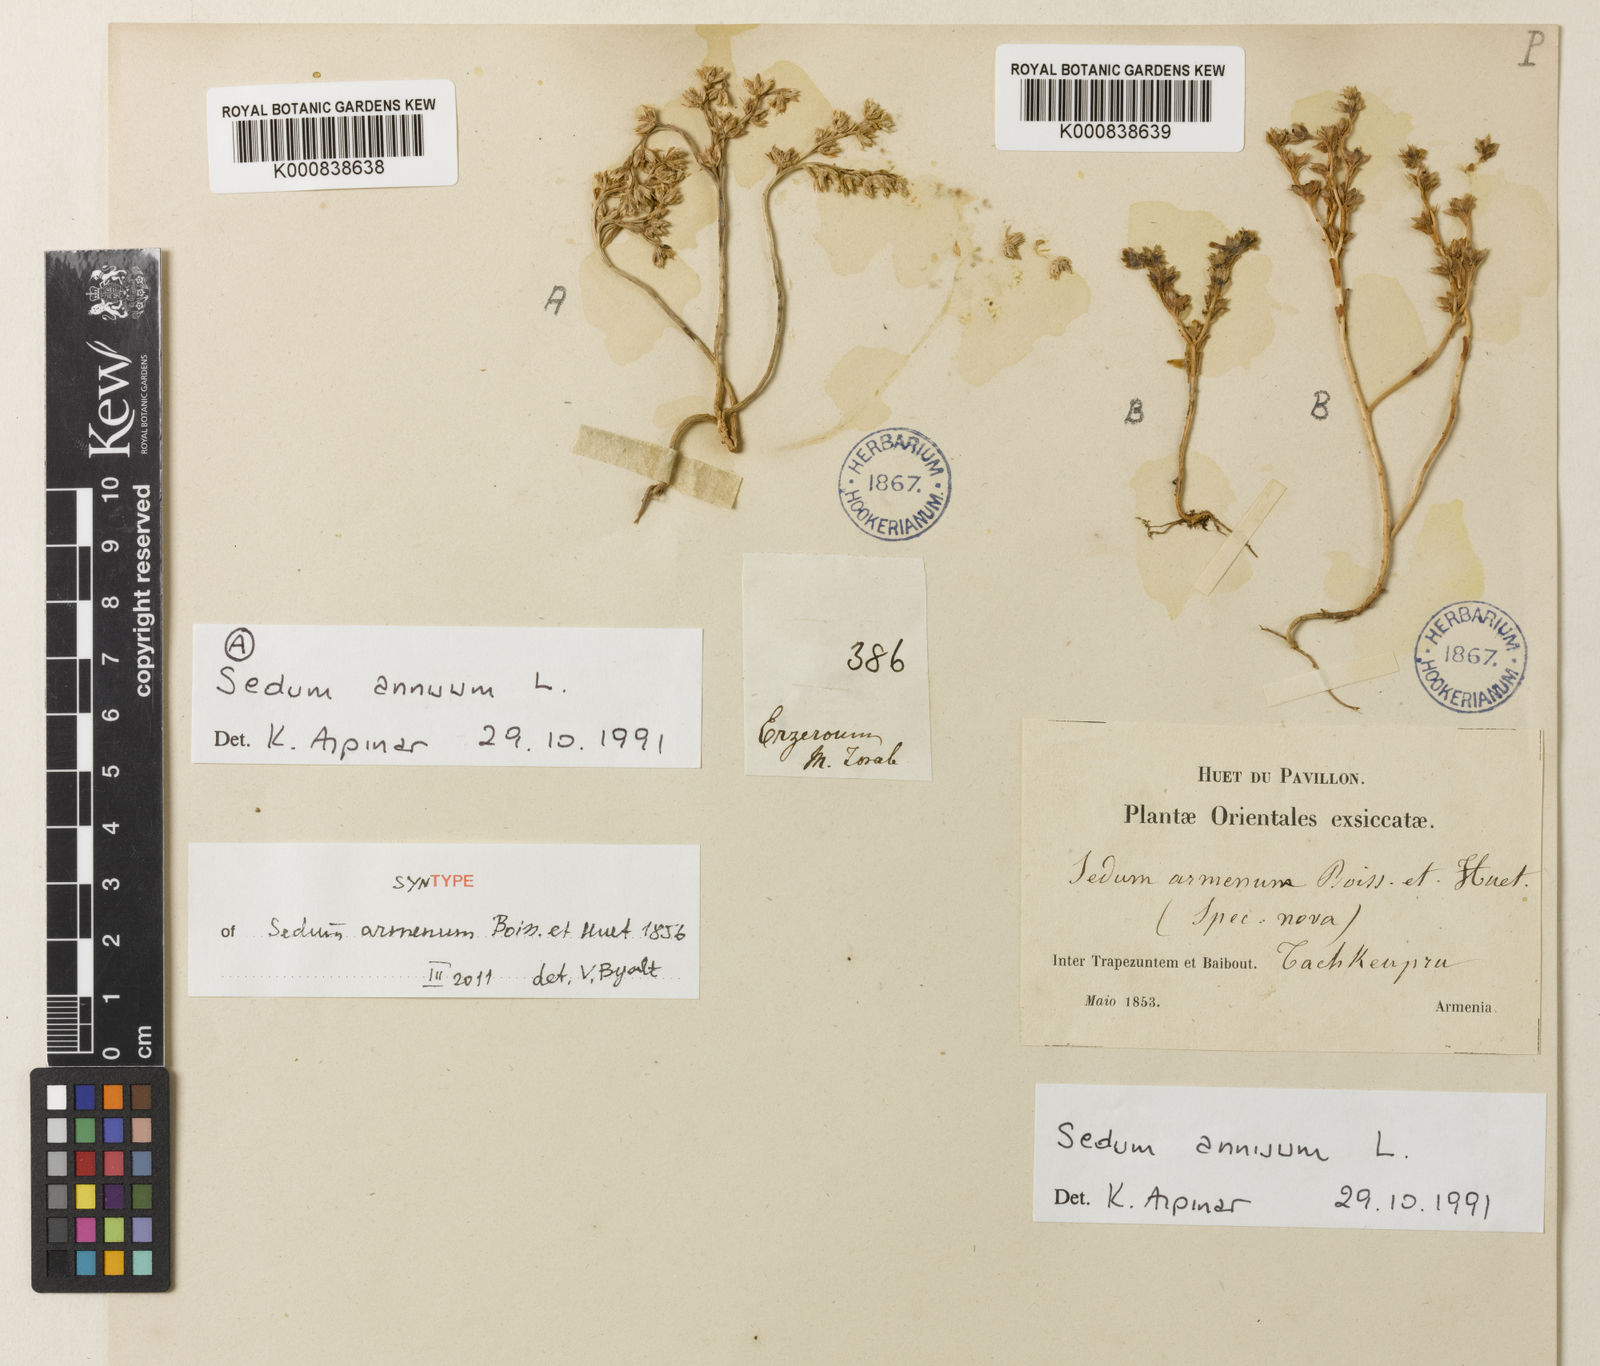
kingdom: Plantae
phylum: Tracheophyta
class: Magnoliopsida
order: Saxifragales
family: Crassulaceae
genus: Sedum
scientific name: Sedum hispanicum
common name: Spanish stonecrop
